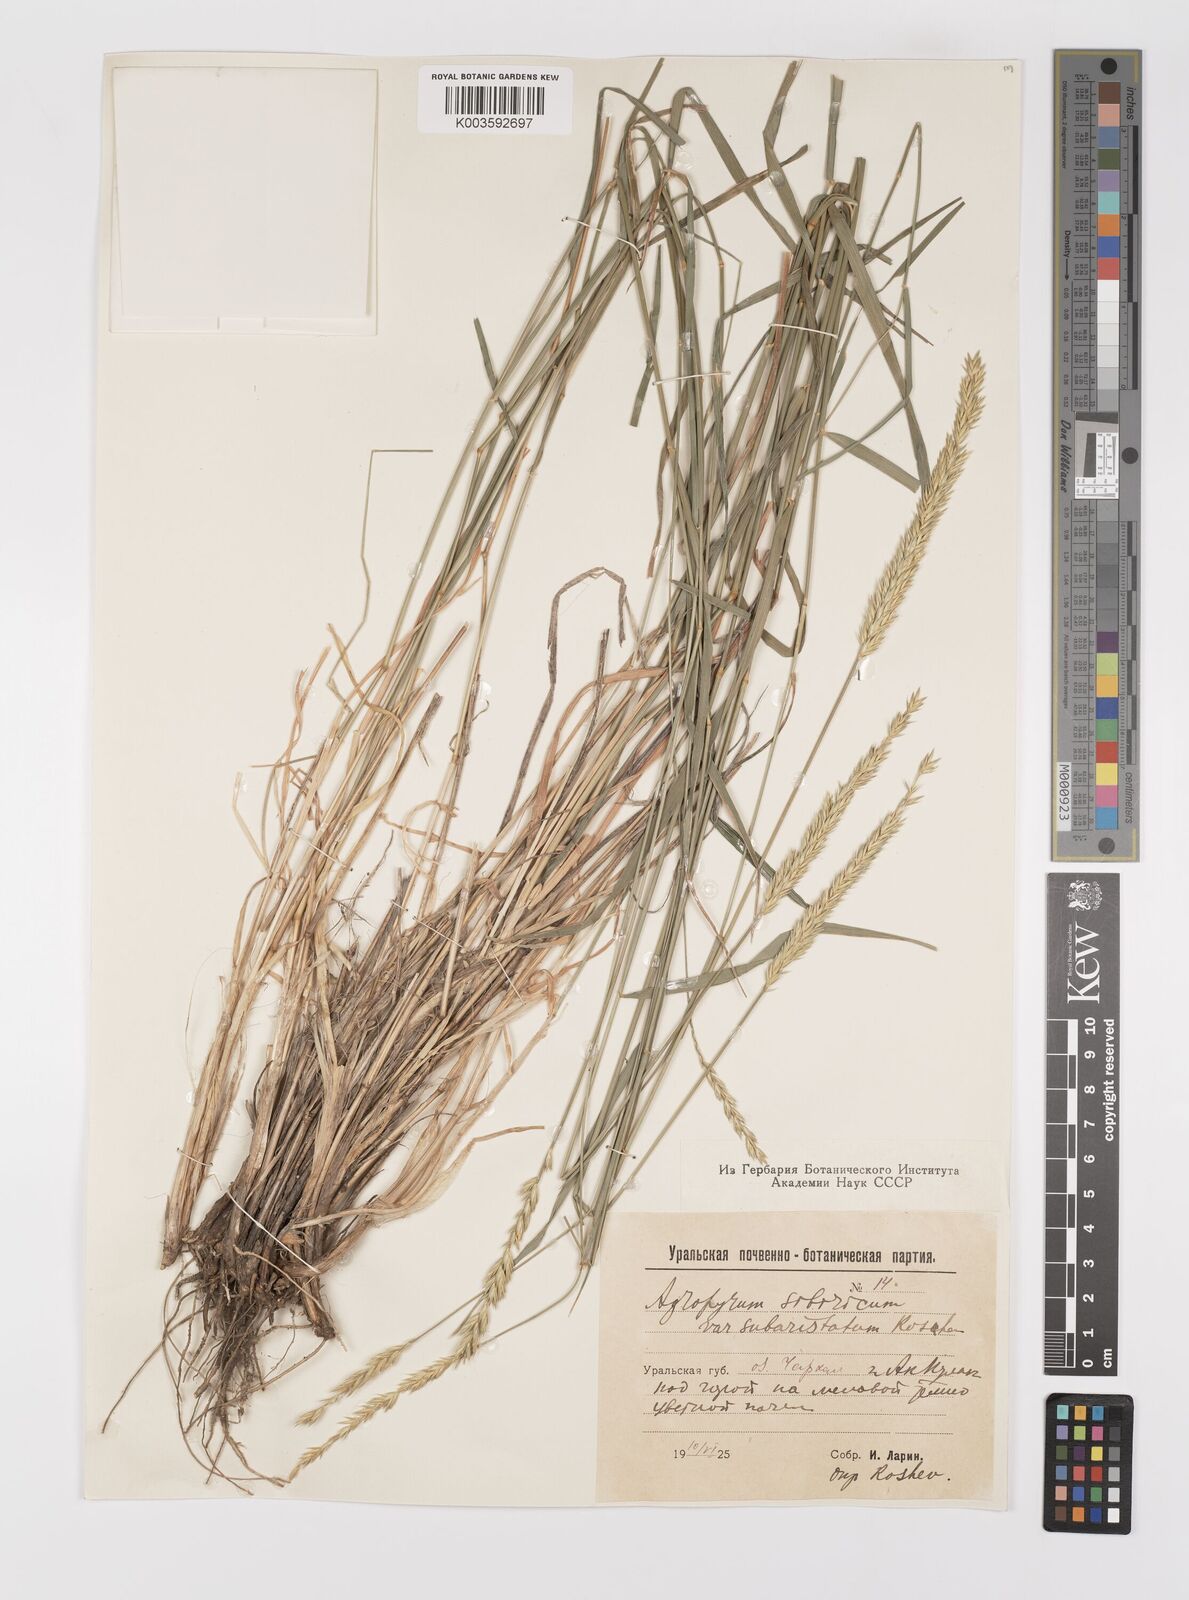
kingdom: Plantae
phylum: Tracheophyta
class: Liliopsida
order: Poales
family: Poaceae
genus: Agropyron
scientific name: Agropyron fragile
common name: Siberian wheatgrass
